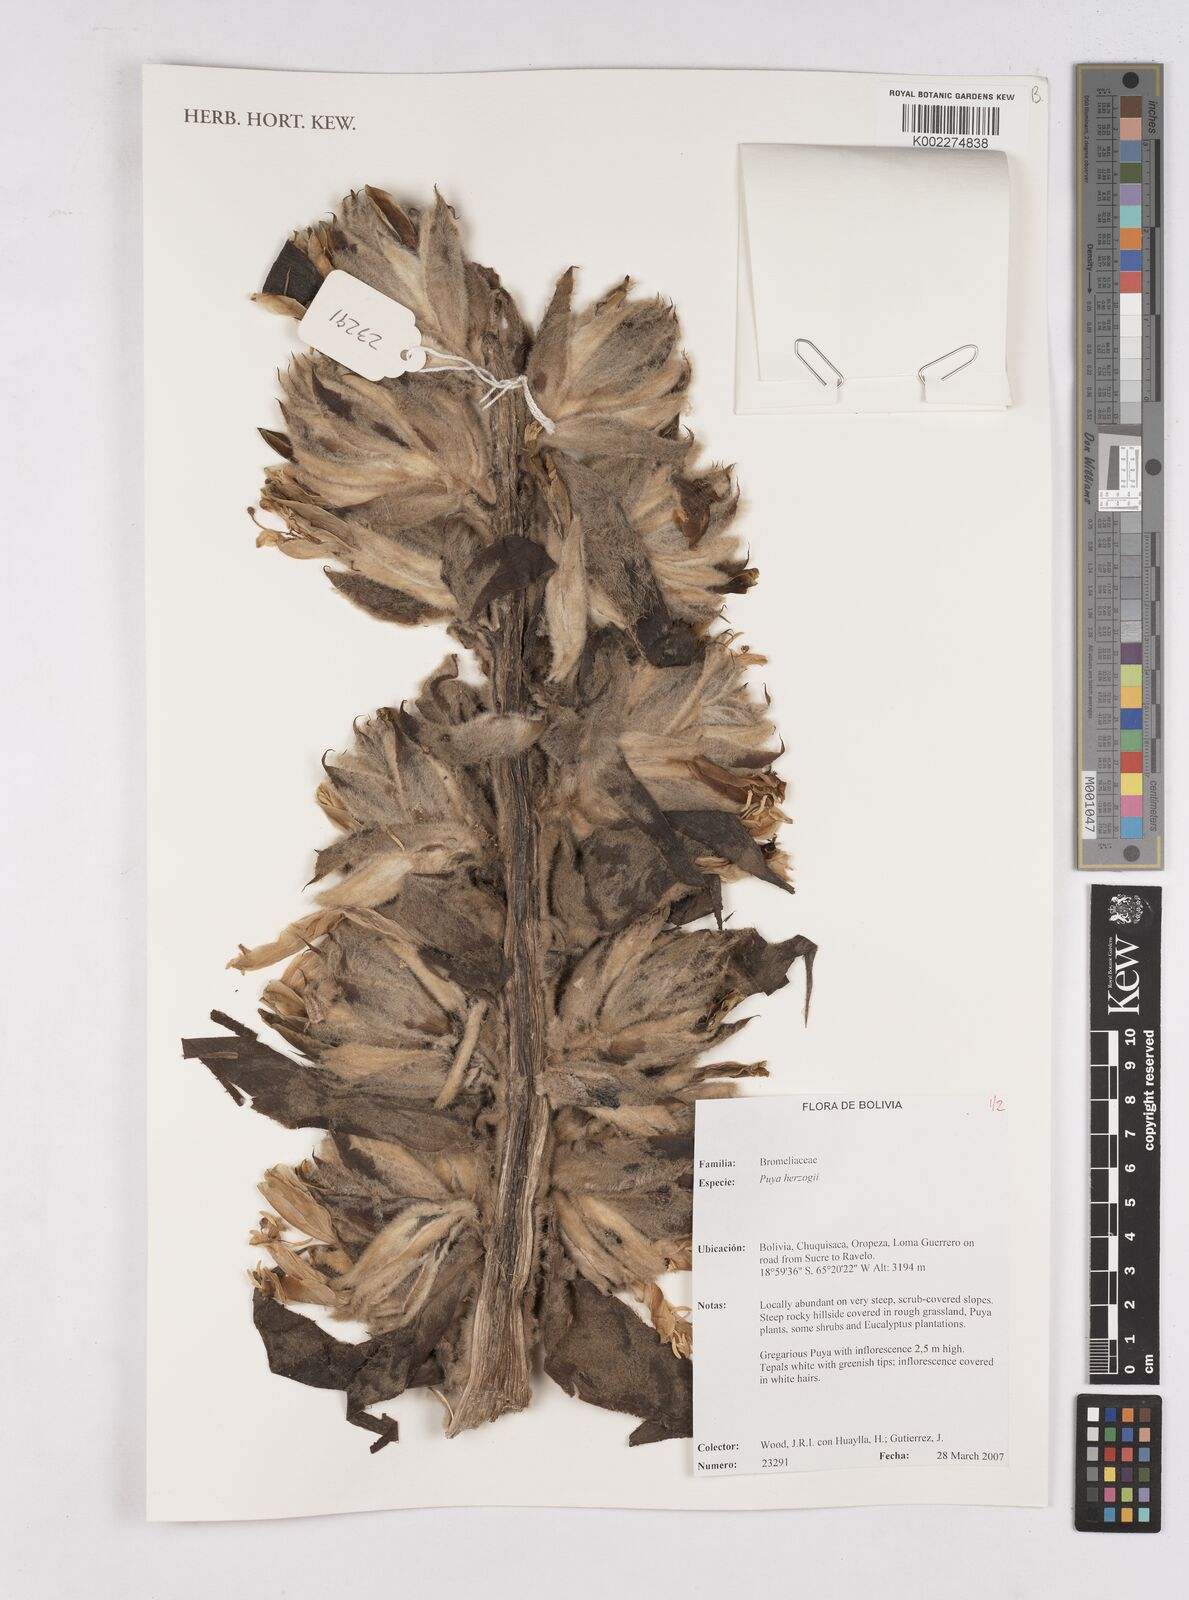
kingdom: Plantae
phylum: Tracheophyta
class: Liliopsida
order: Poales
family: Bromeliaceae
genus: Puya
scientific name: Puya vestita
